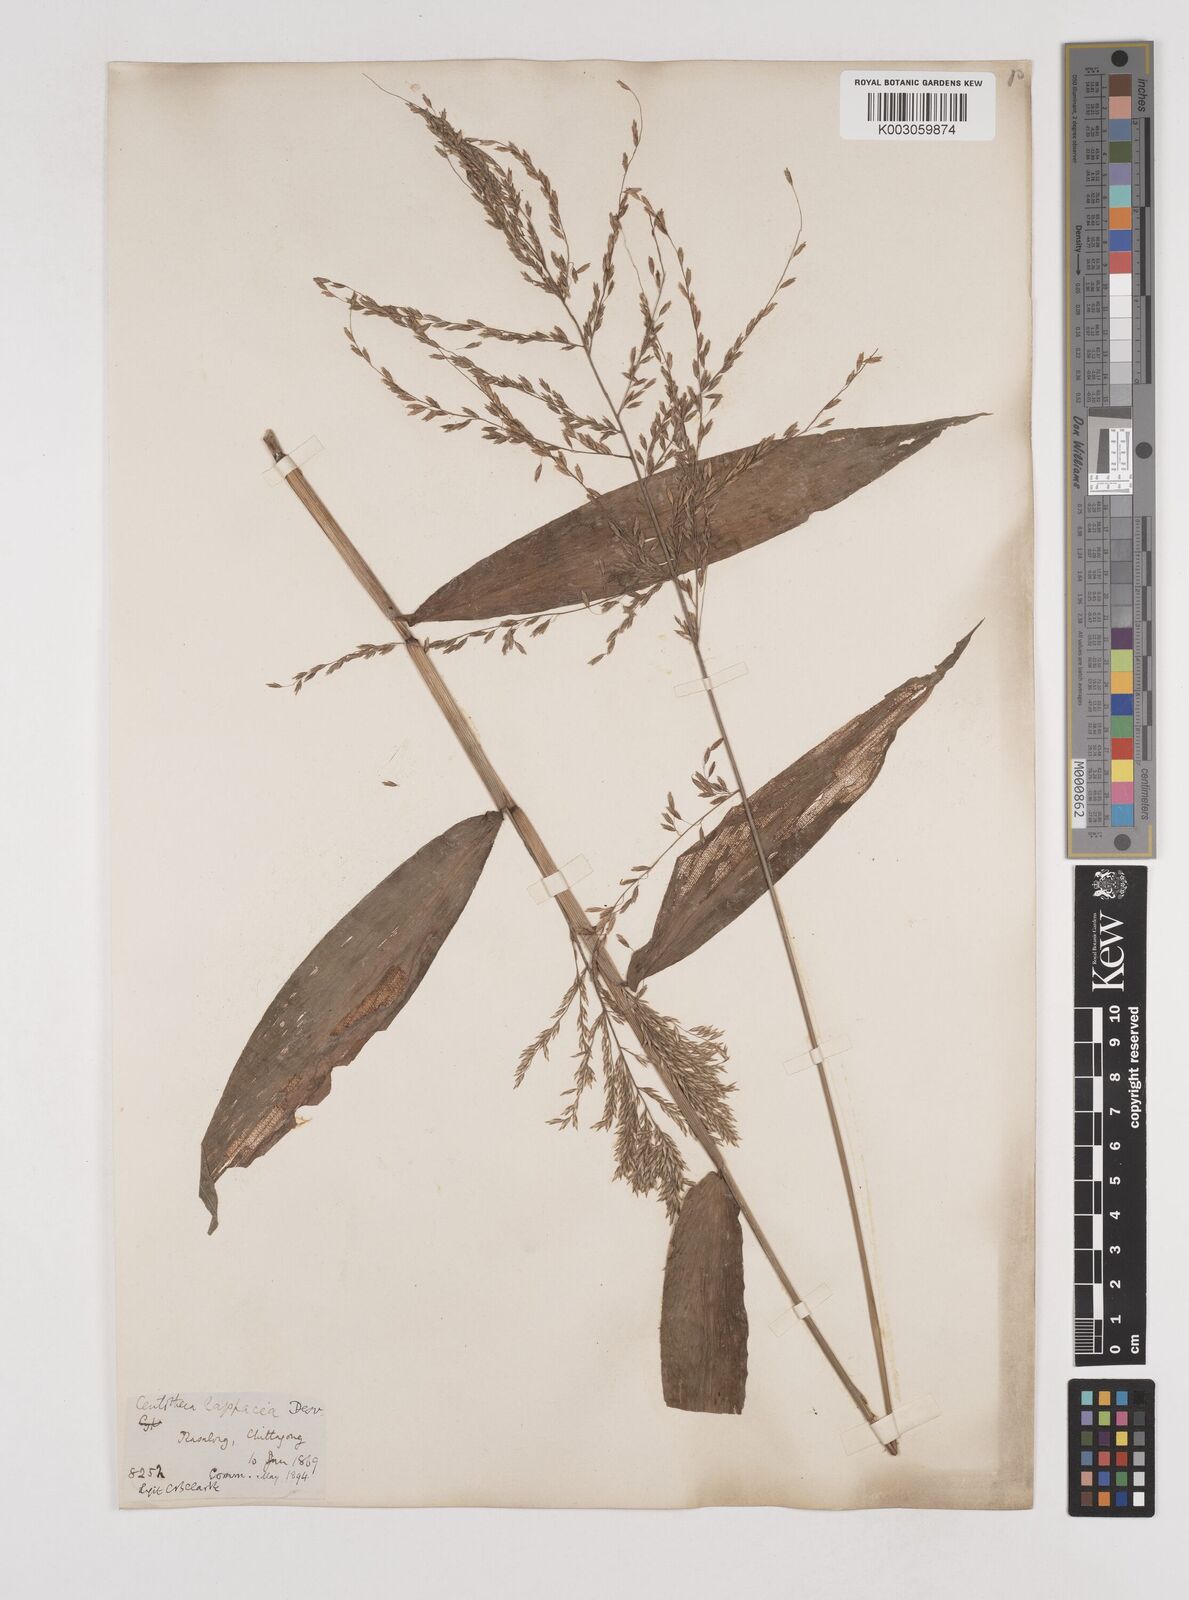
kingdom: Plantae
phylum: Tracheophyta
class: Liliopsida
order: Poales
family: Poaceae
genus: Centotheca
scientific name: Centotheca lappacea
